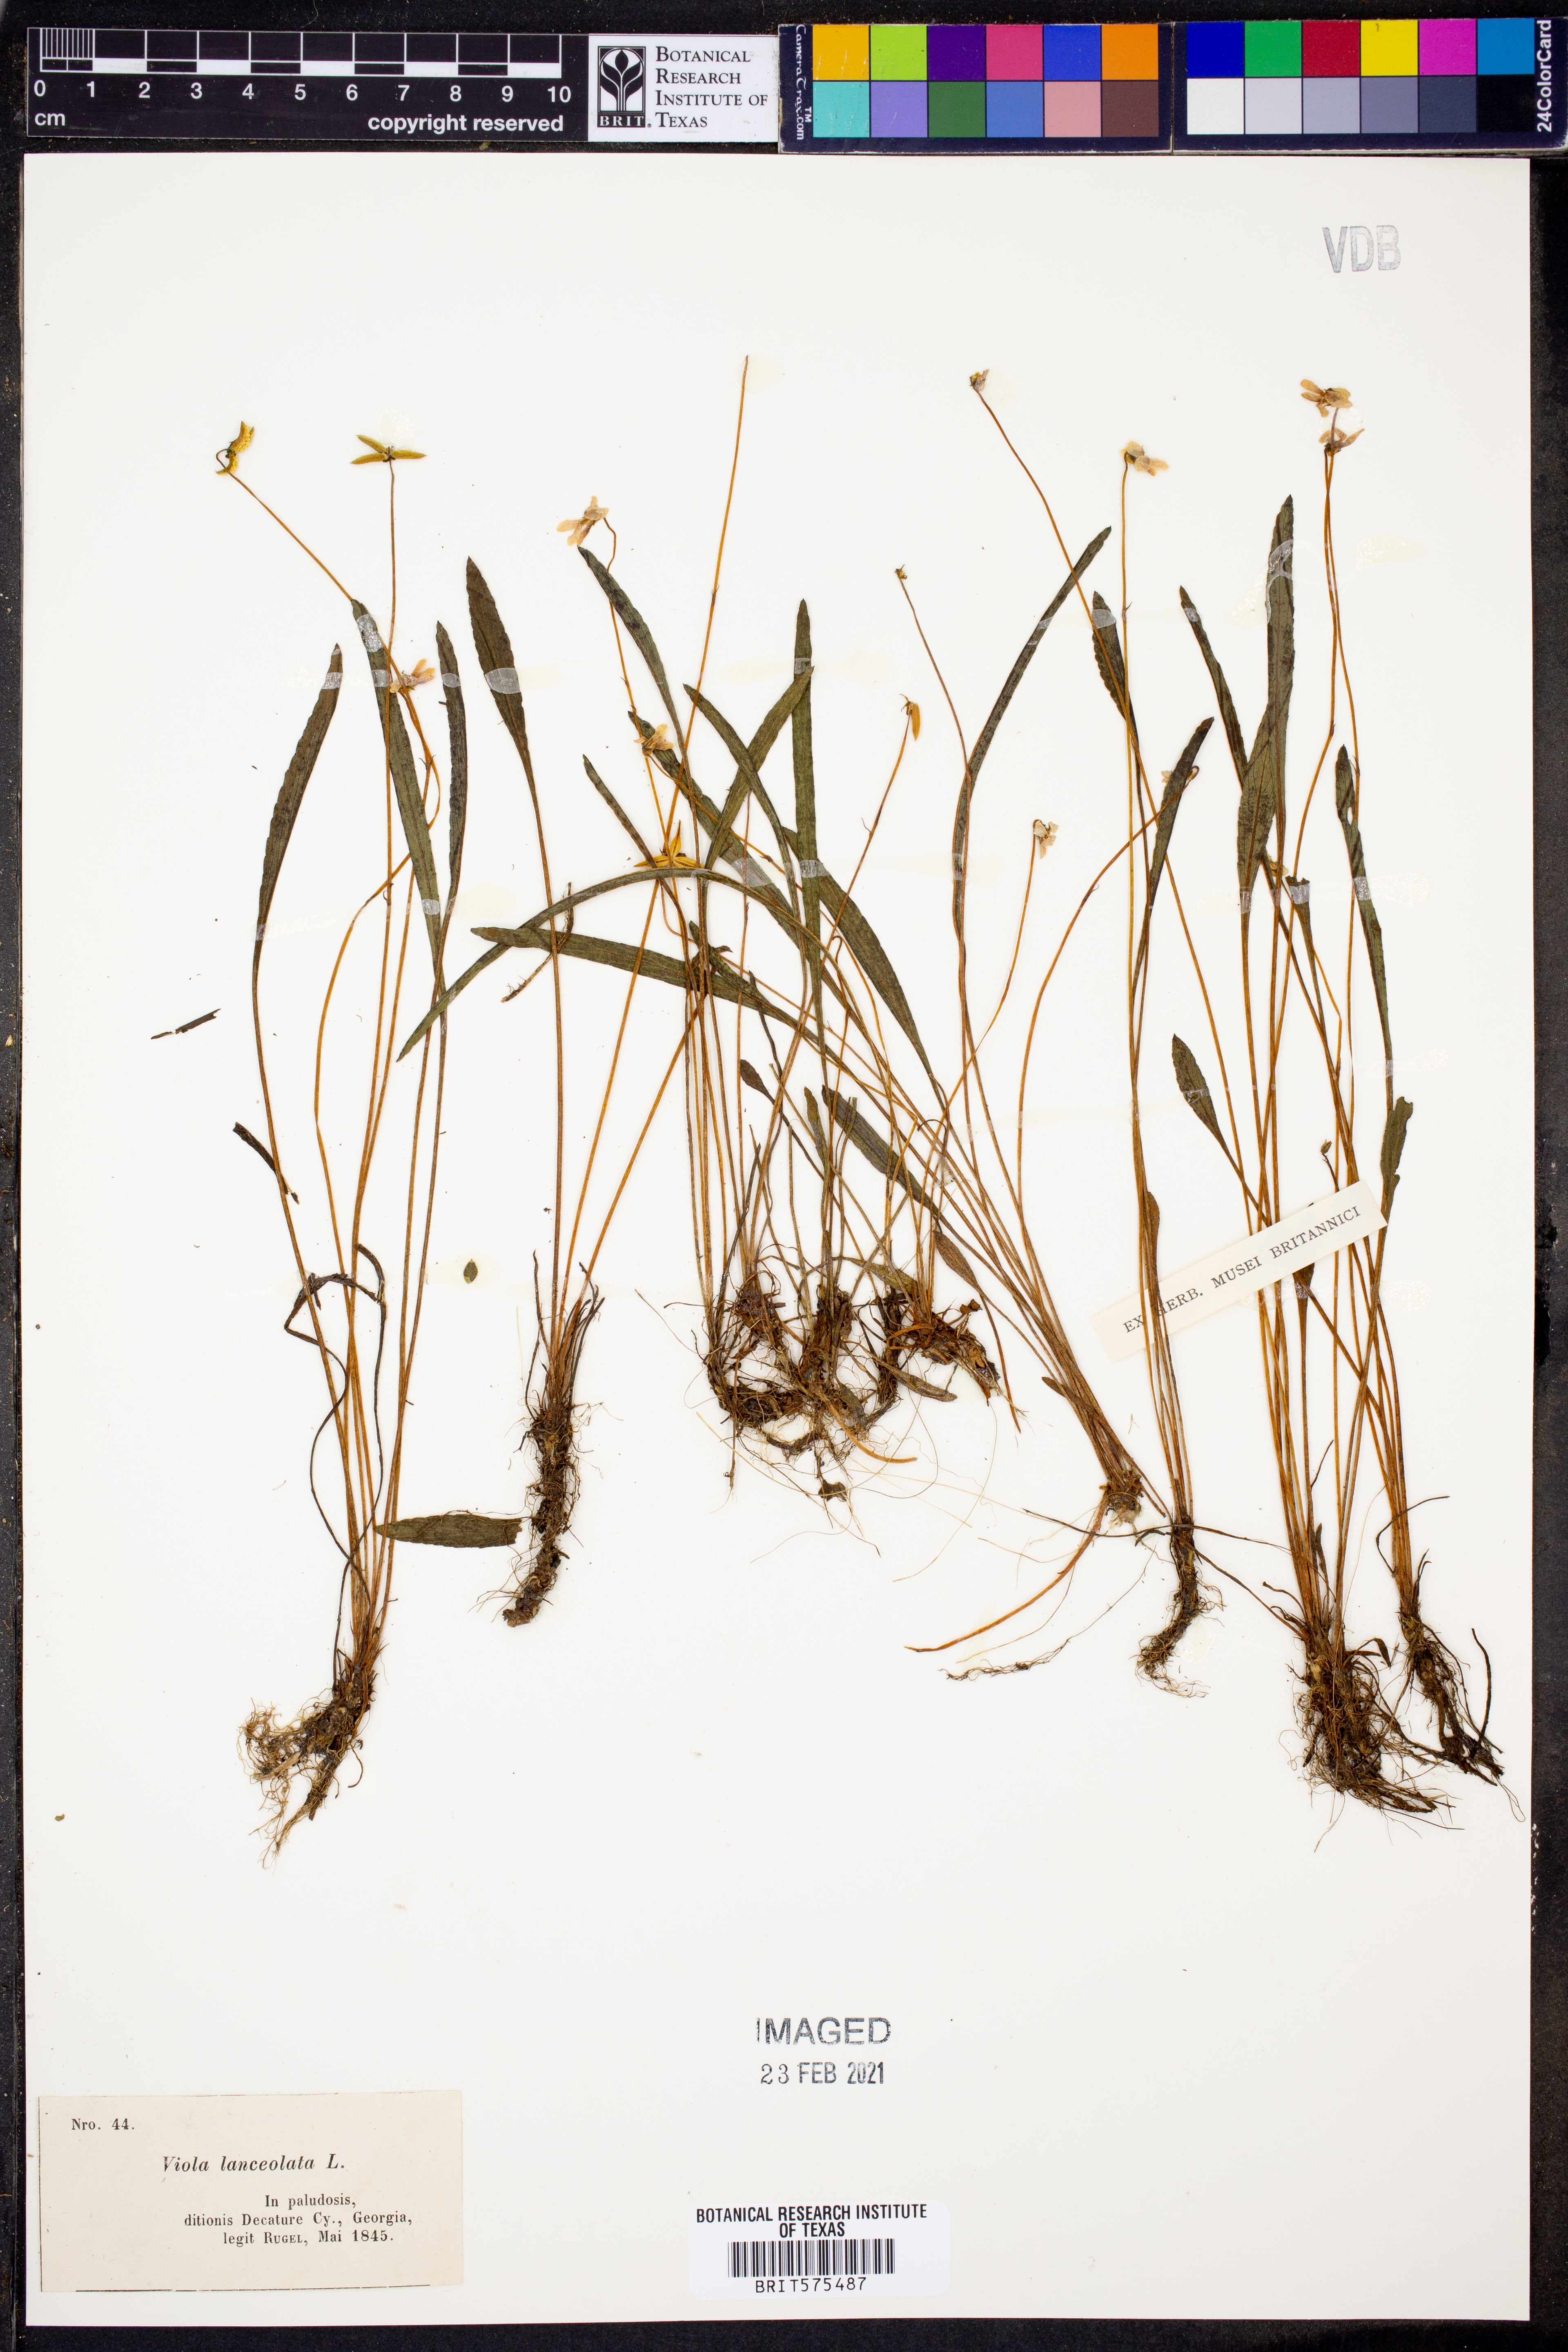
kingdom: Plantae
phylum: Tracheophyta
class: Magnoliopsida
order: Malpighiales
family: Violaceae
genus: Viola
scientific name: Viola lanceolata
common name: Bog white violet
